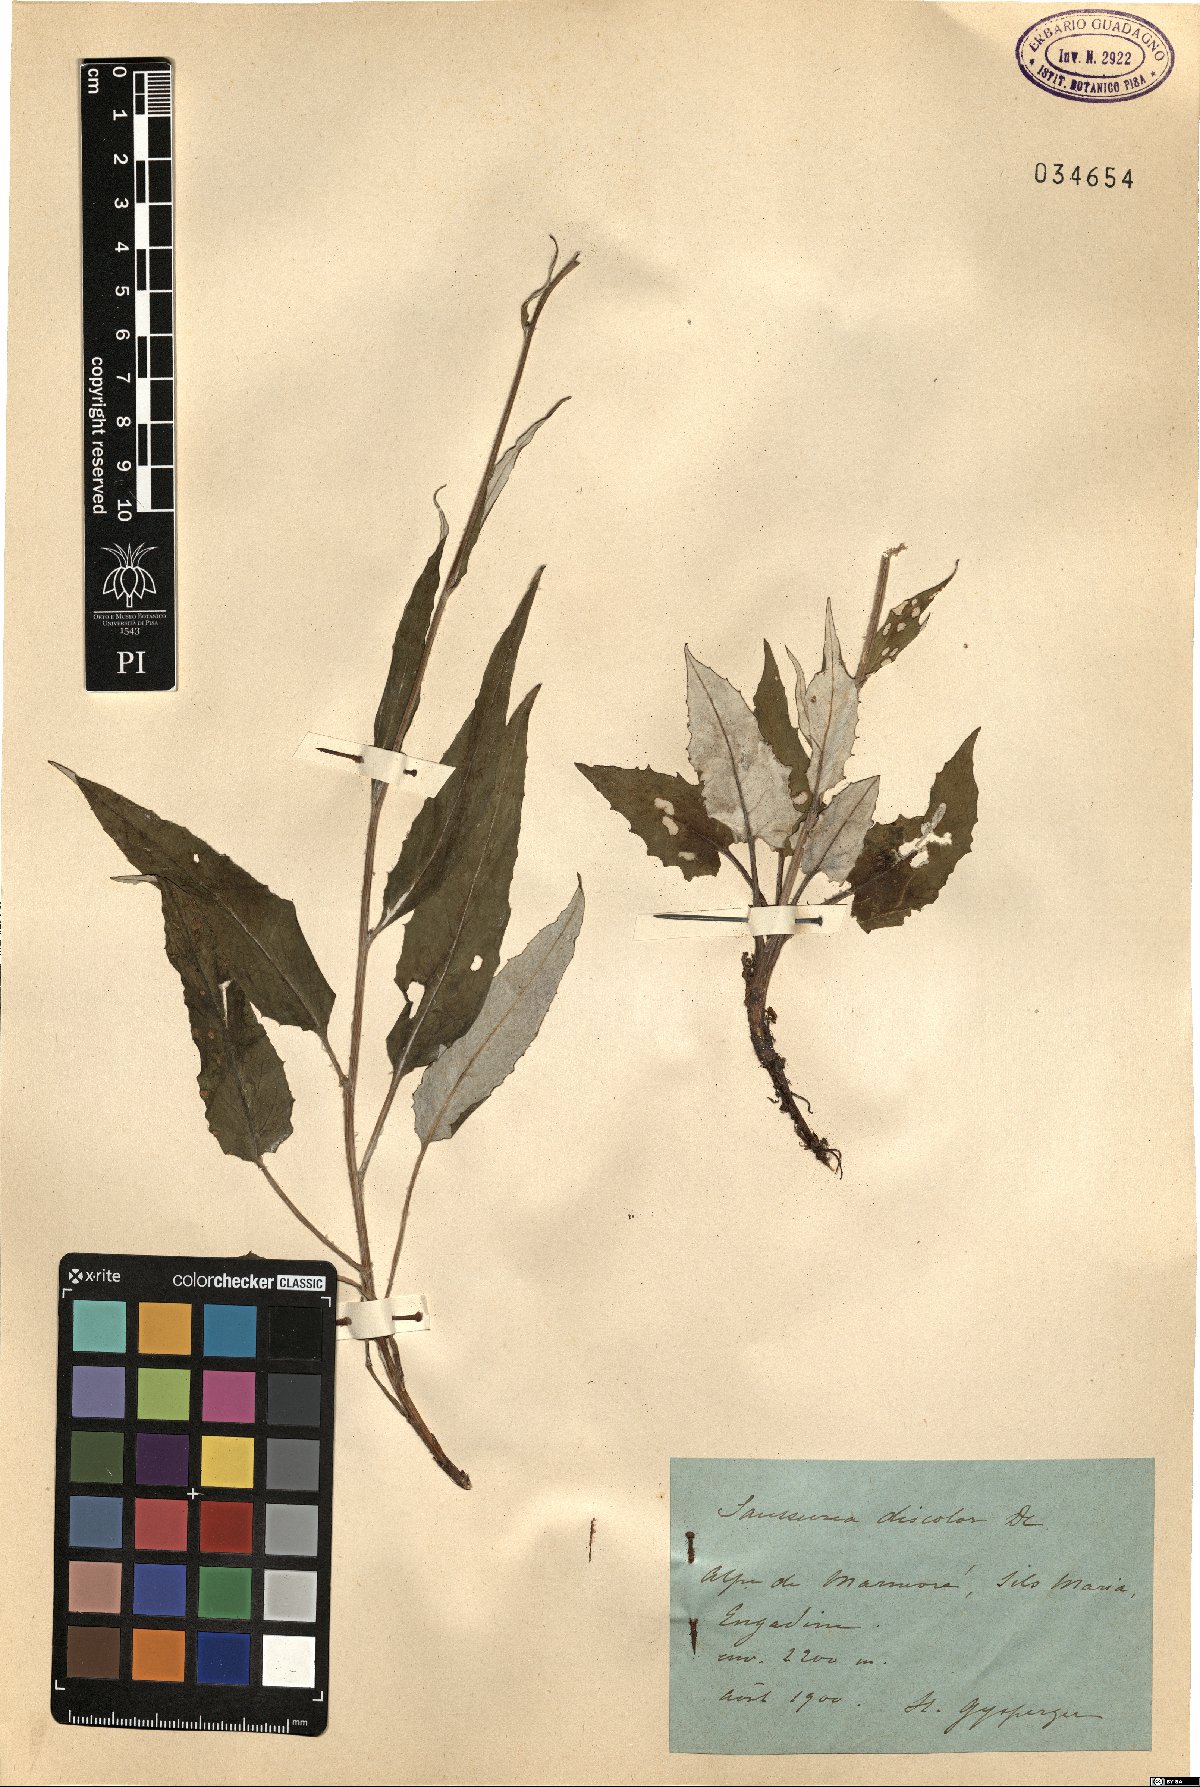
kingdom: Plantae
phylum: Tracheophyta
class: Magnoliopsida
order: Asterales
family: Asteraceae
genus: Saussurea
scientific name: Saussurea discolor
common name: Heart-leaved saussurea
